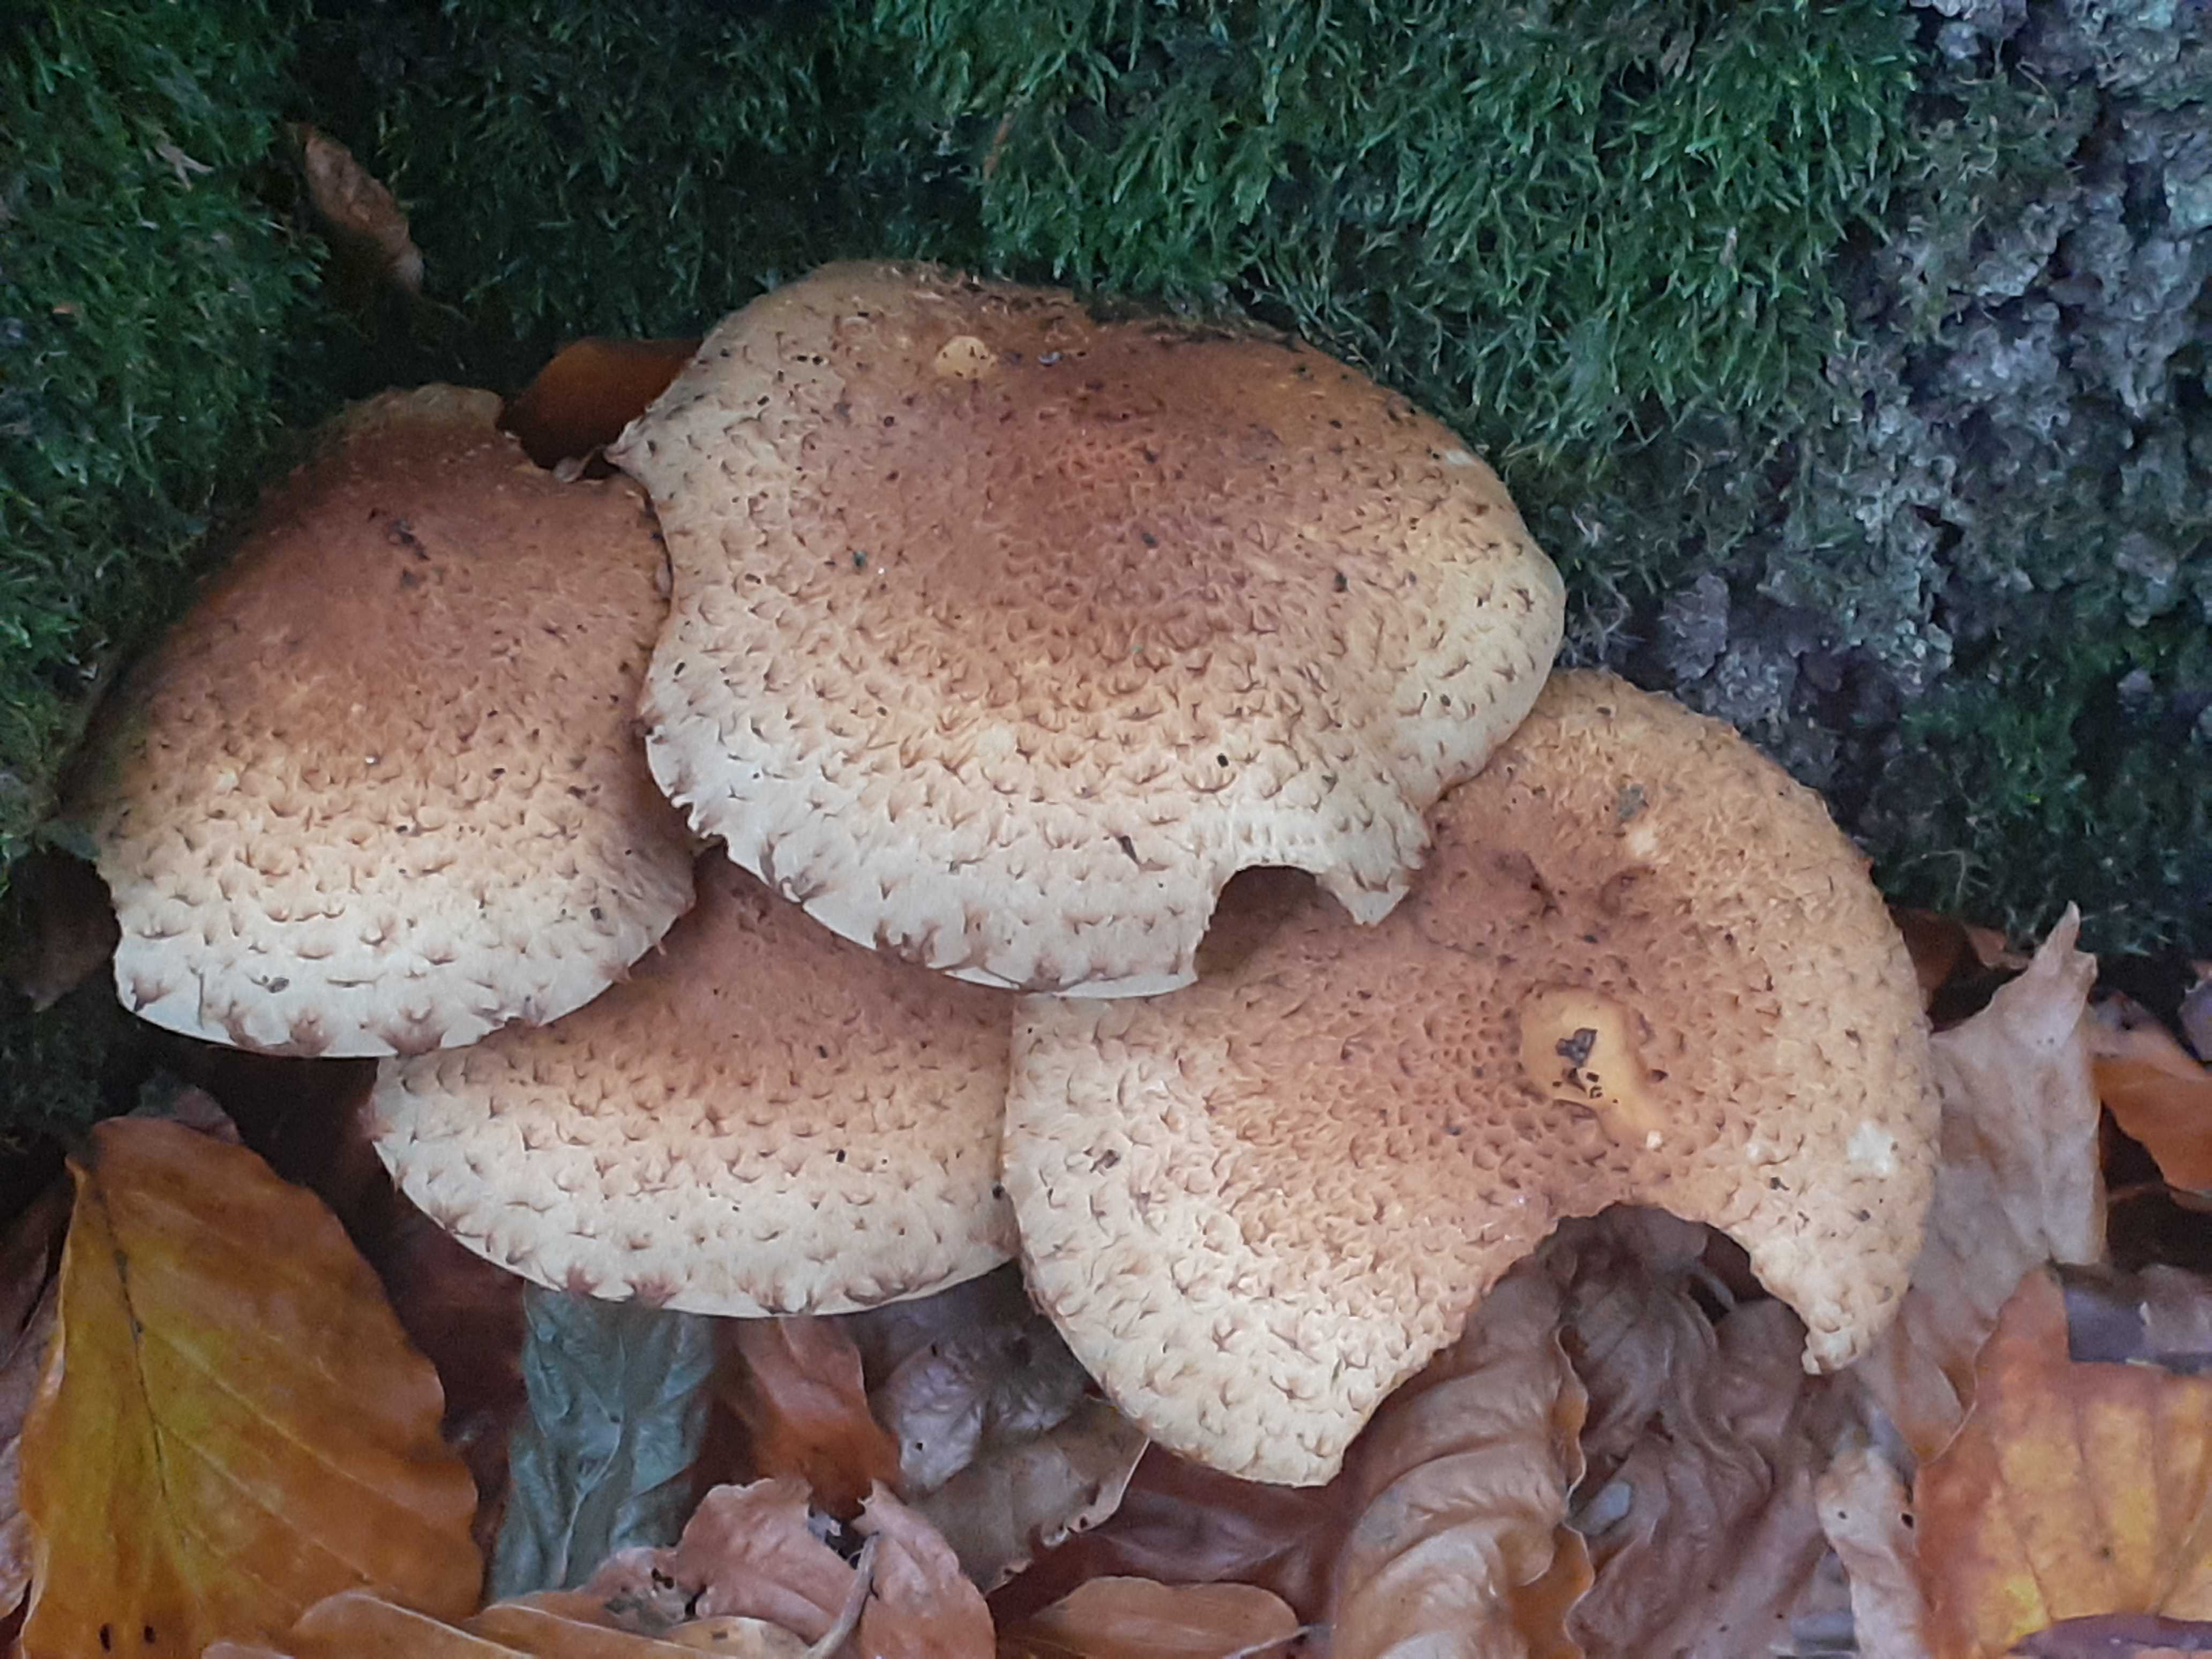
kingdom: Fungi
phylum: Basidiomycota
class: Agaricomycetes
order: Agaricales
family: Strophariaceae
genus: Pholiota
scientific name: Pholiota squarrosa
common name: krumskællet skælhat
